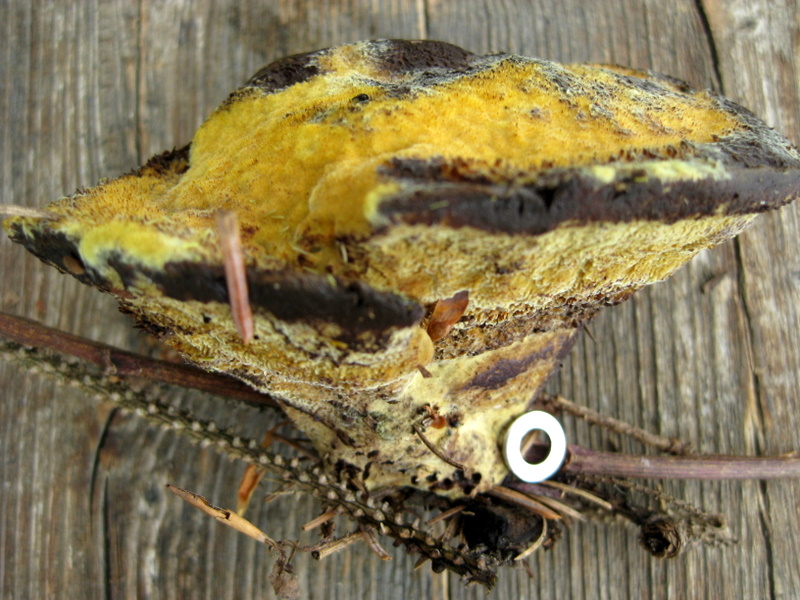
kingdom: Fungi
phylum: Basidiomycota
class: Agaricomycetes
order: Polyporales
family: Laetiporaceae
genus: Phaeolus
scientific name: Phaeolus schweinitzii
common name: brunporesvamp
